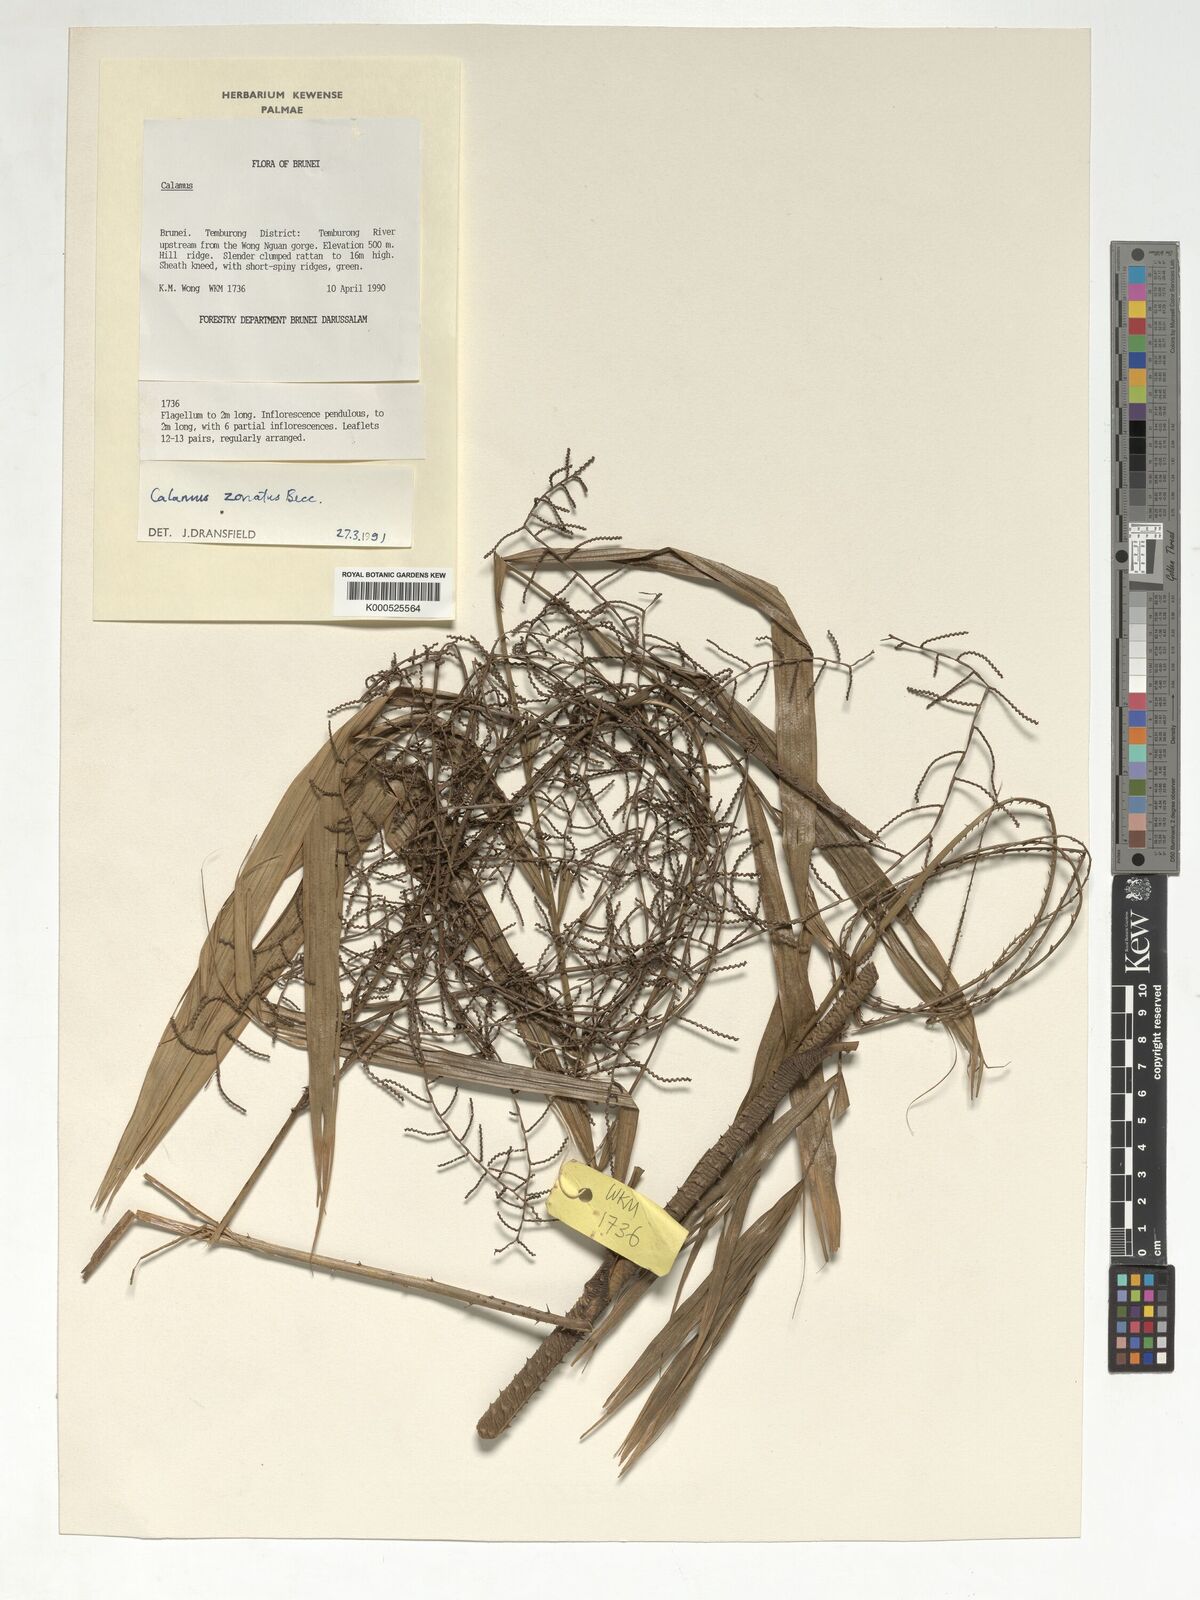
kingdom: Plantae
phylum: Tracheophyta
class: Liliopsida
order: Arecales
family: Arecaceae
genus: Calamus
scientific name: Calamus zonatus
